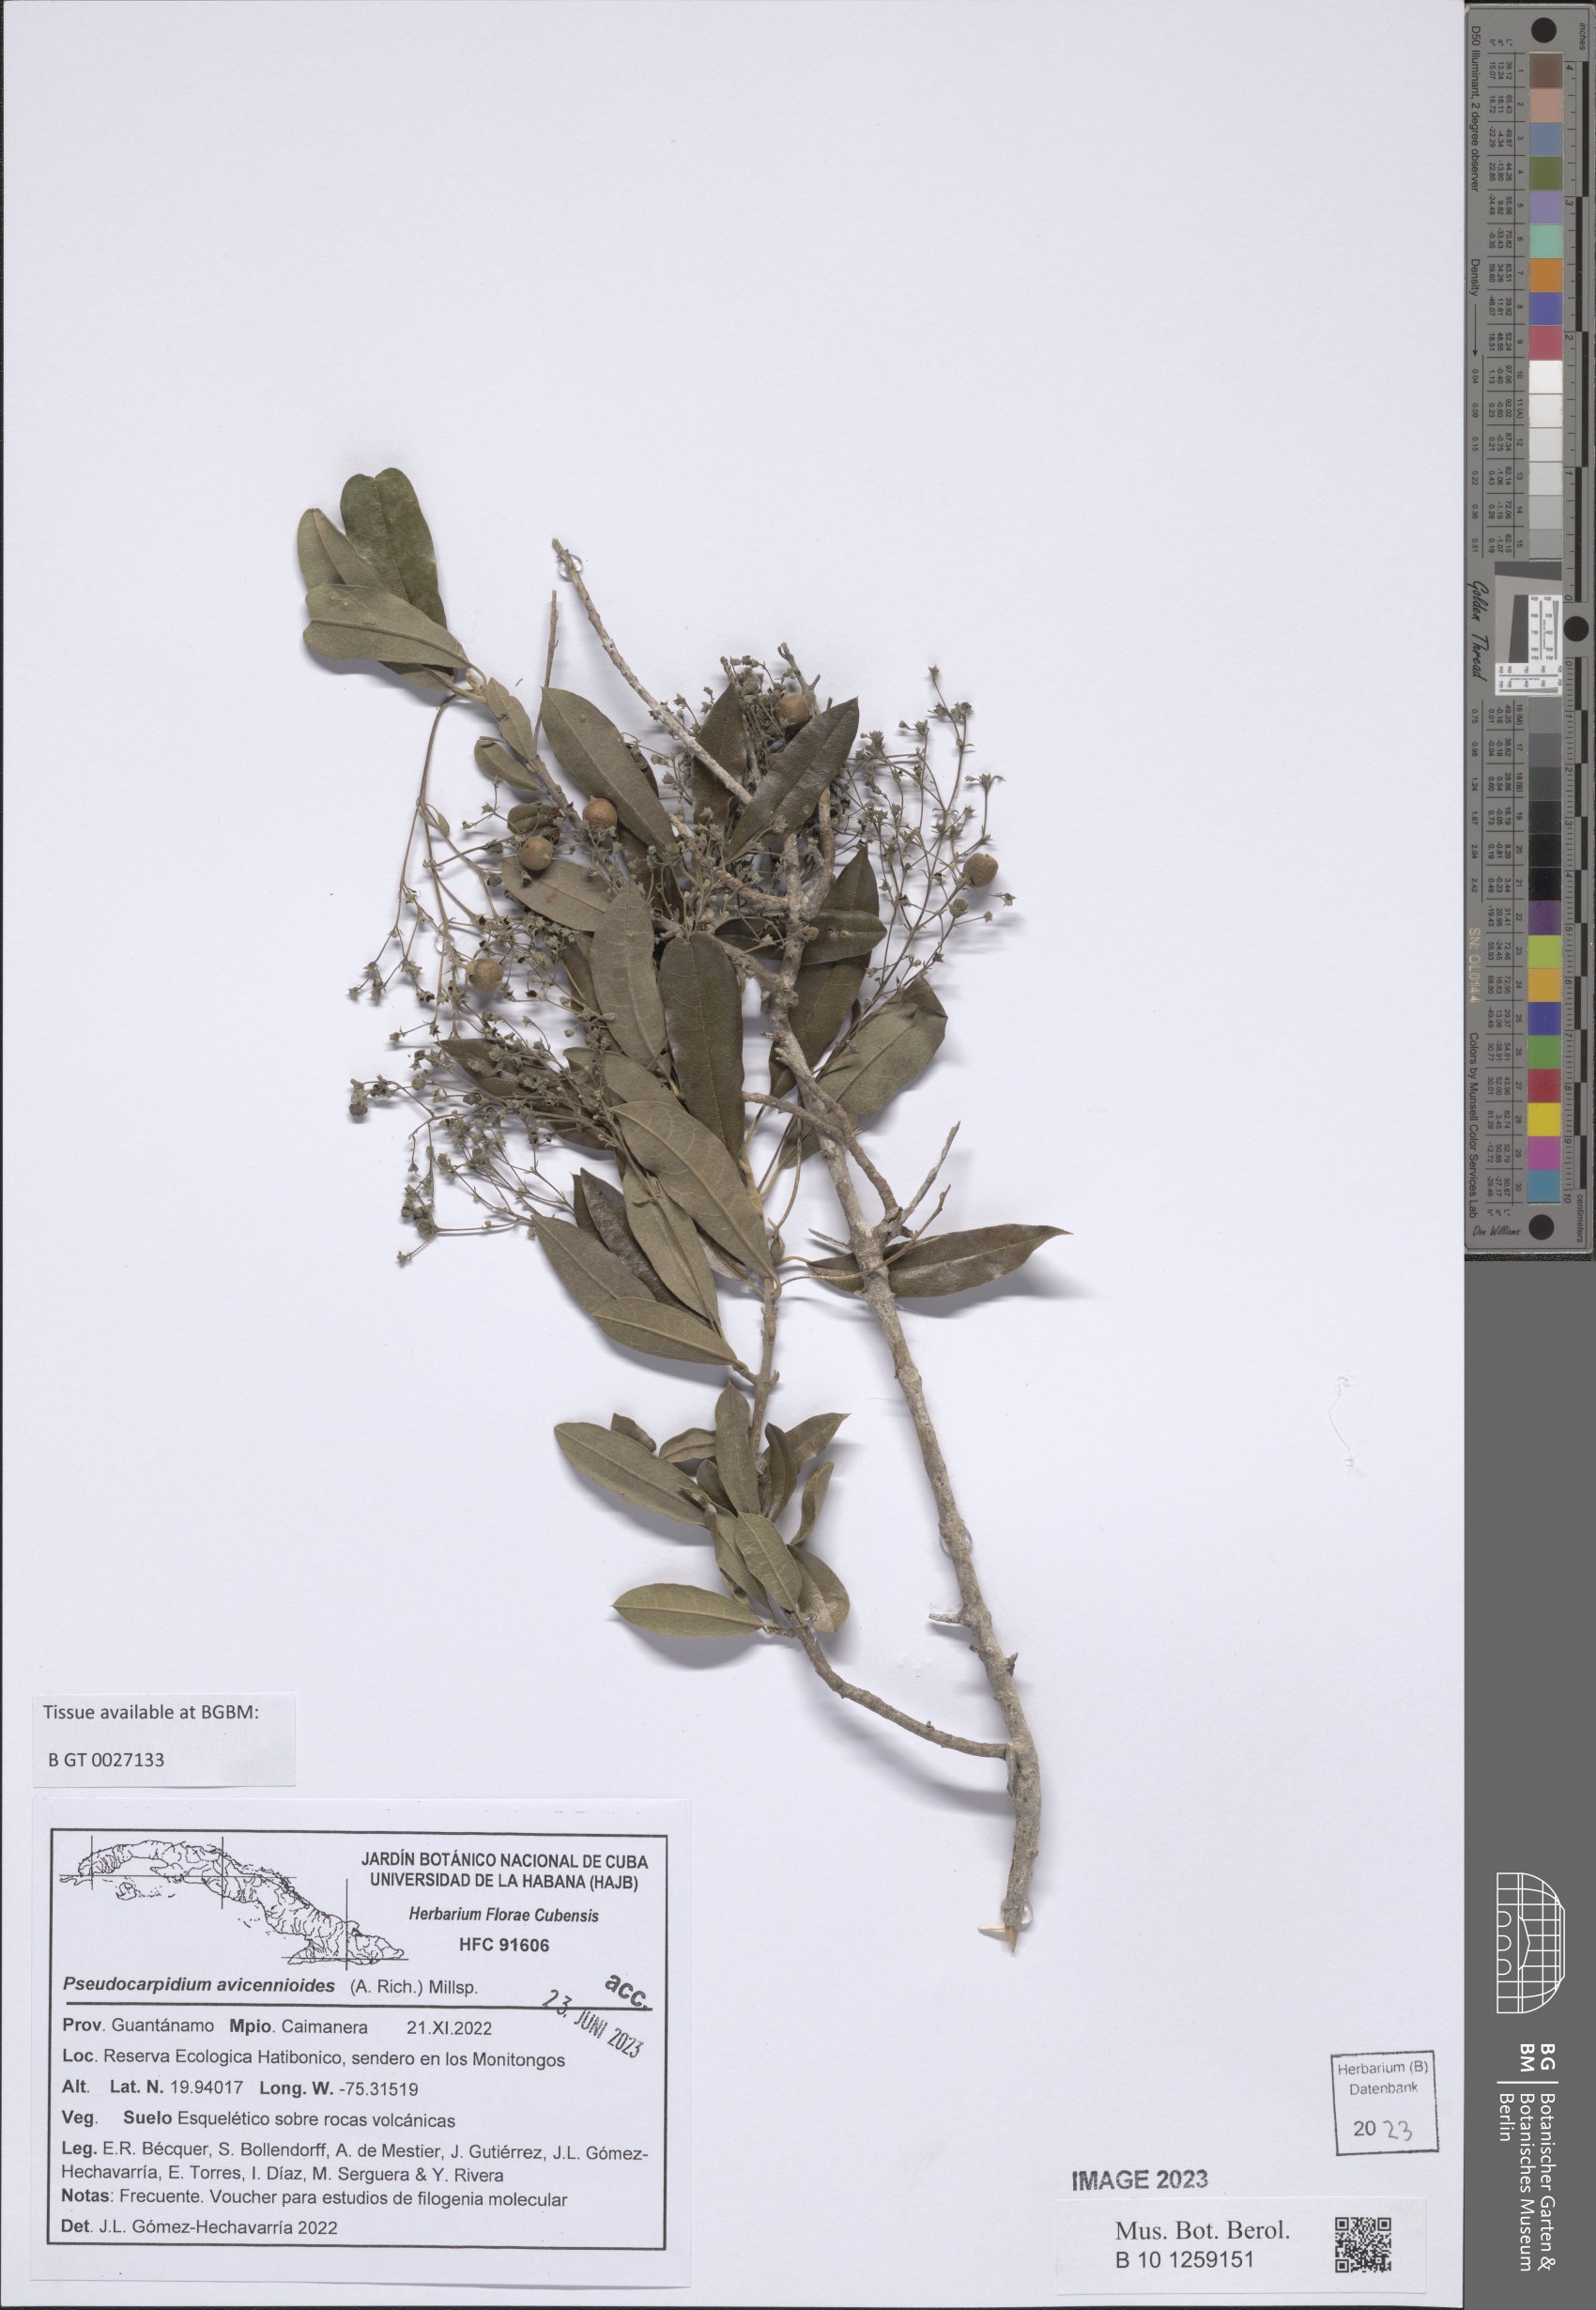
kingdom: Plantae
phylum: Tracheophyta
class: Magnoliopsida
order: Lamiales
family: Lamiaceae
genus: Pseudocarpidium
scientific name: Pseudocarpidium avicennioides
